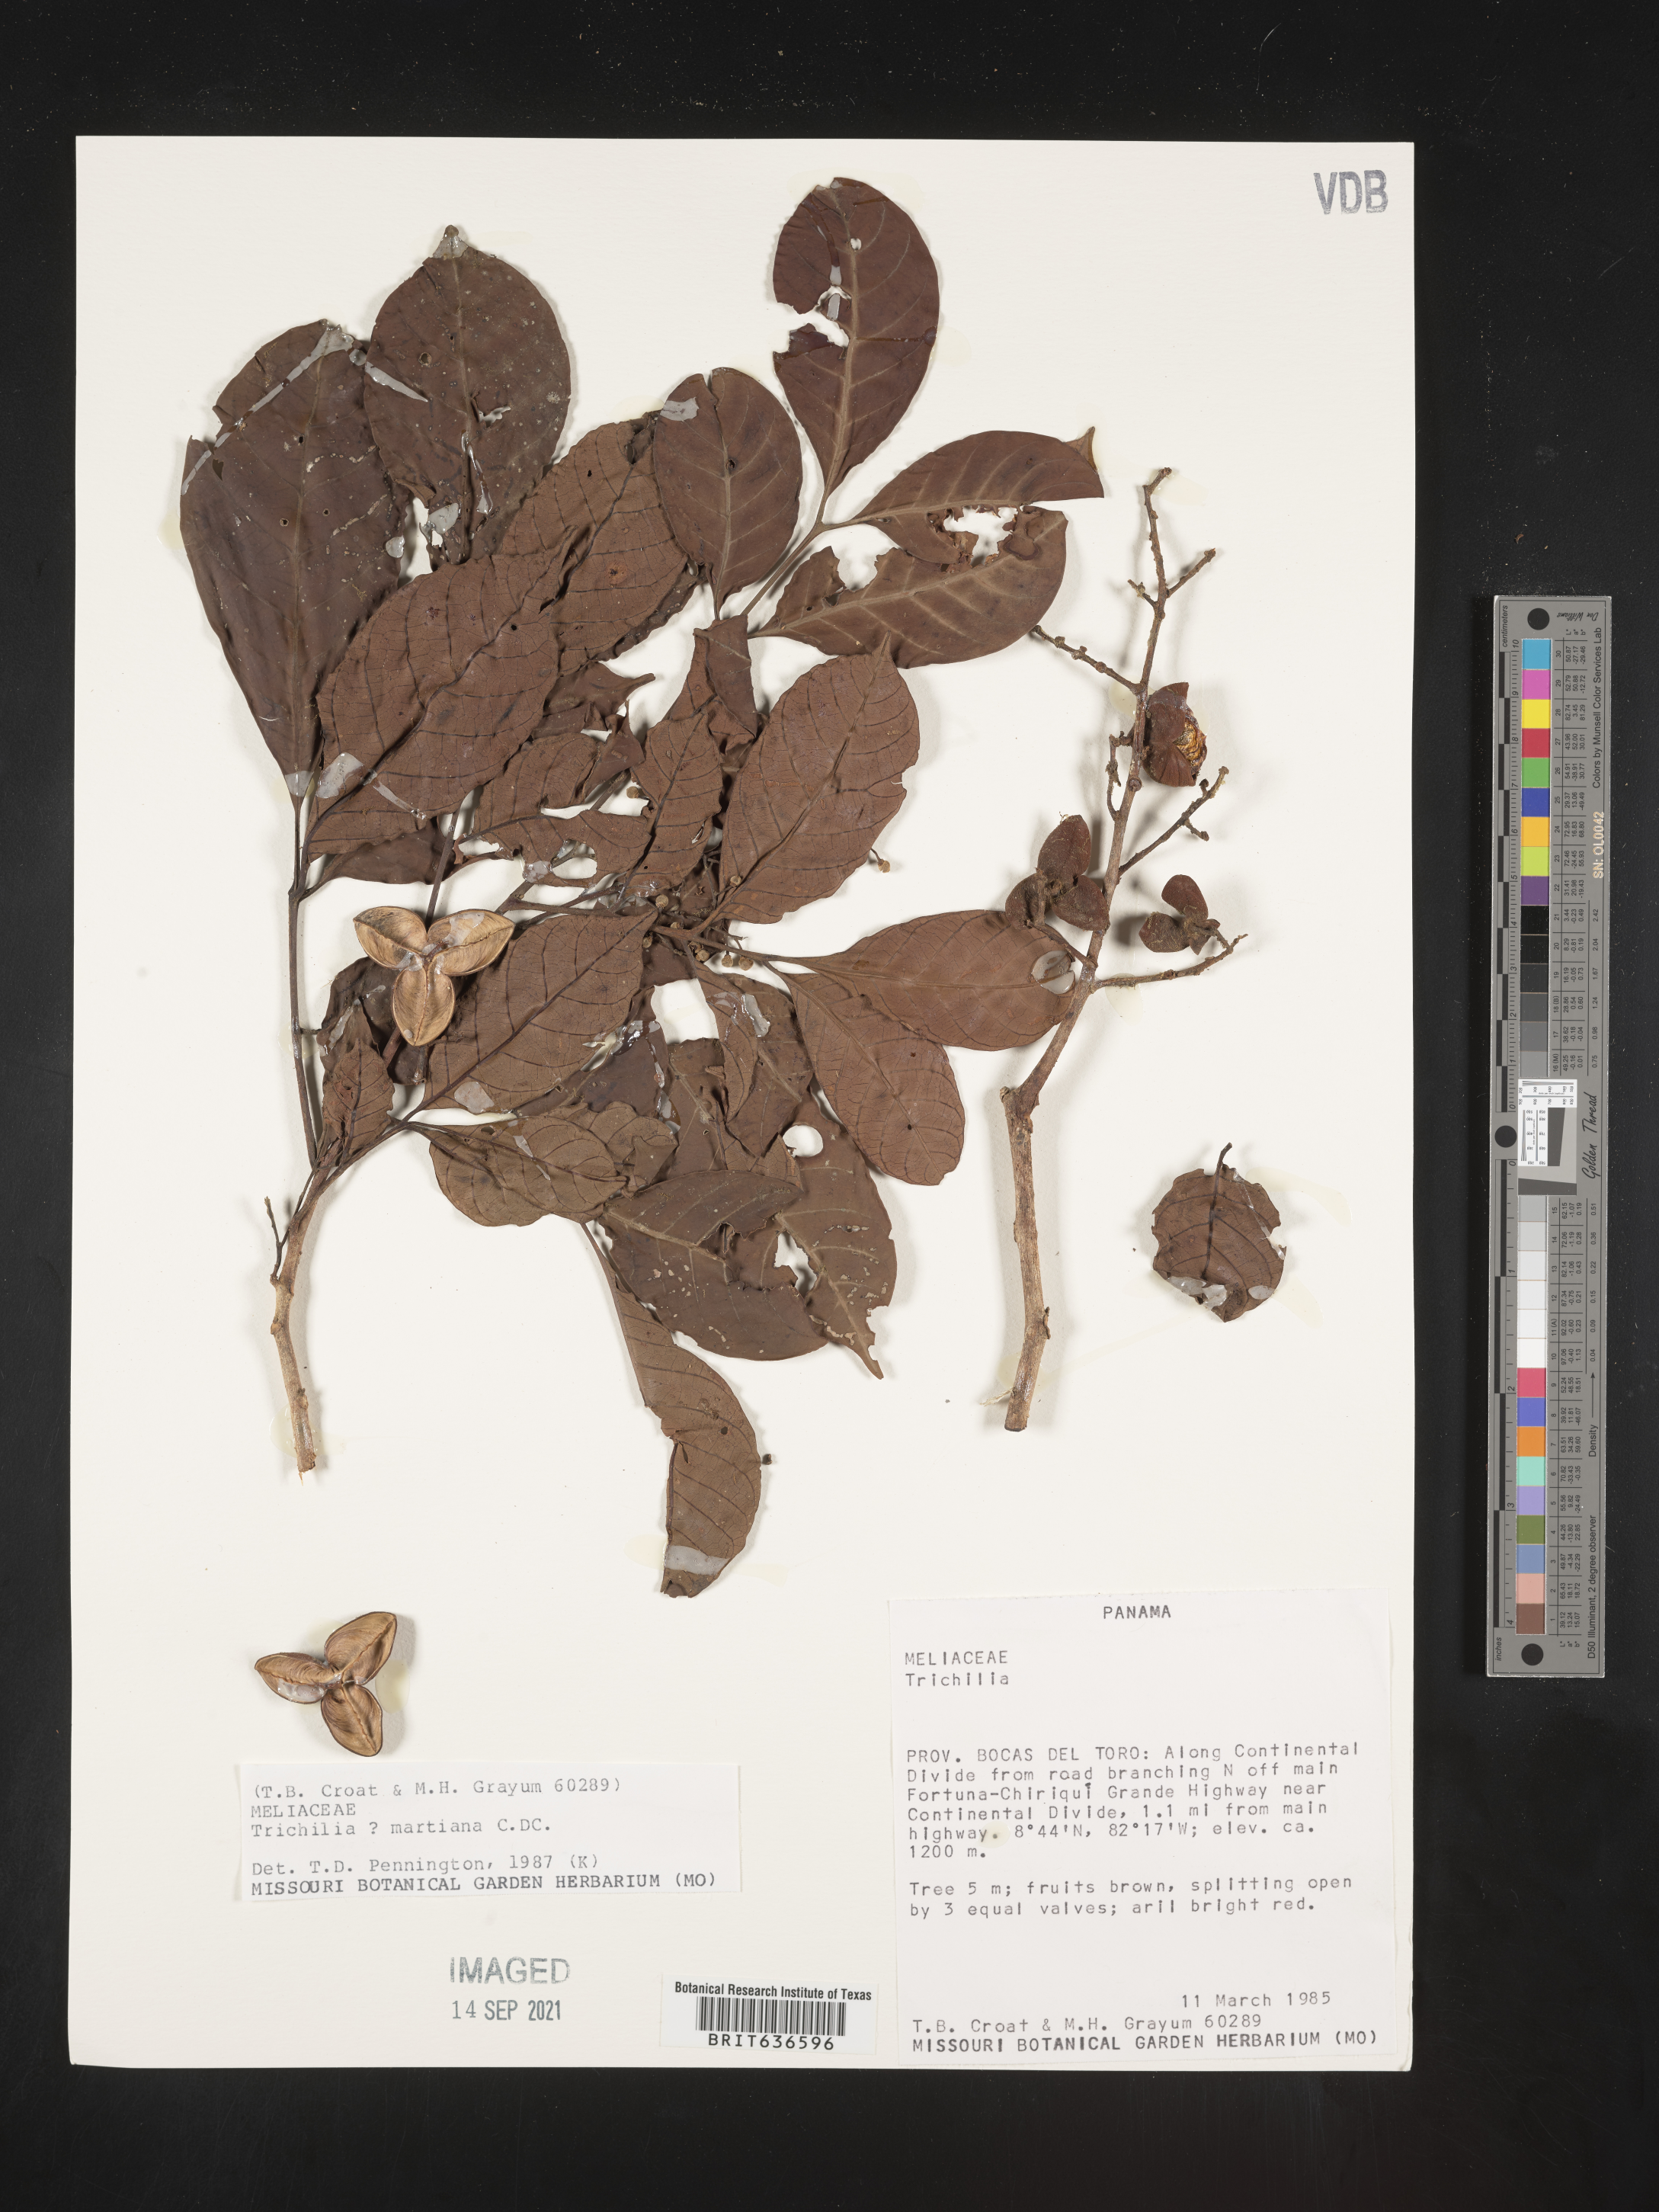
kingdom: Plantae
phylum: Tracheophyta
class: Magnoliopsida
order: Sapindales
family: Meliaceae
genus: Trichilia
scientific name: Trichilia
